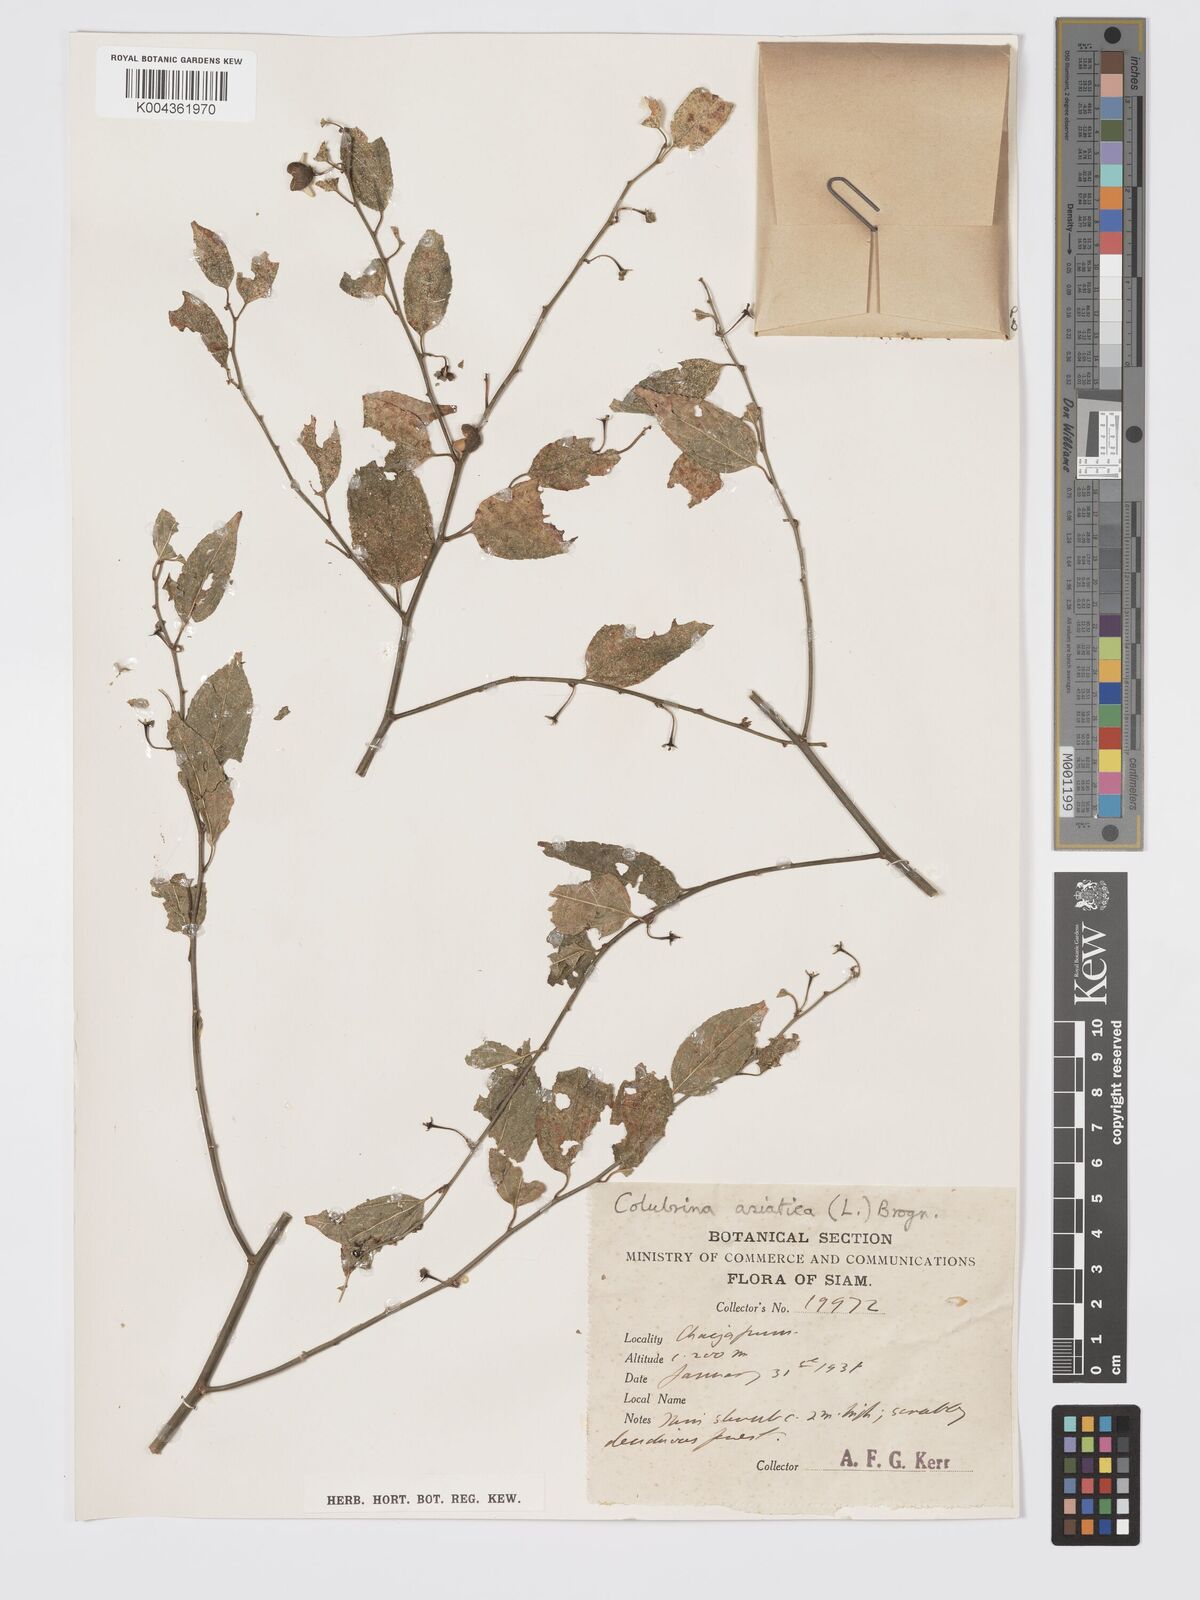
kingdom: Plantae
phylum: Tracheophyta
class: Magnoliopsida
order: Rosales
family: Rhamnaceae
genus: Colubrina
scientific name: Colubrina asiatica
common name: Asian nakedwood
